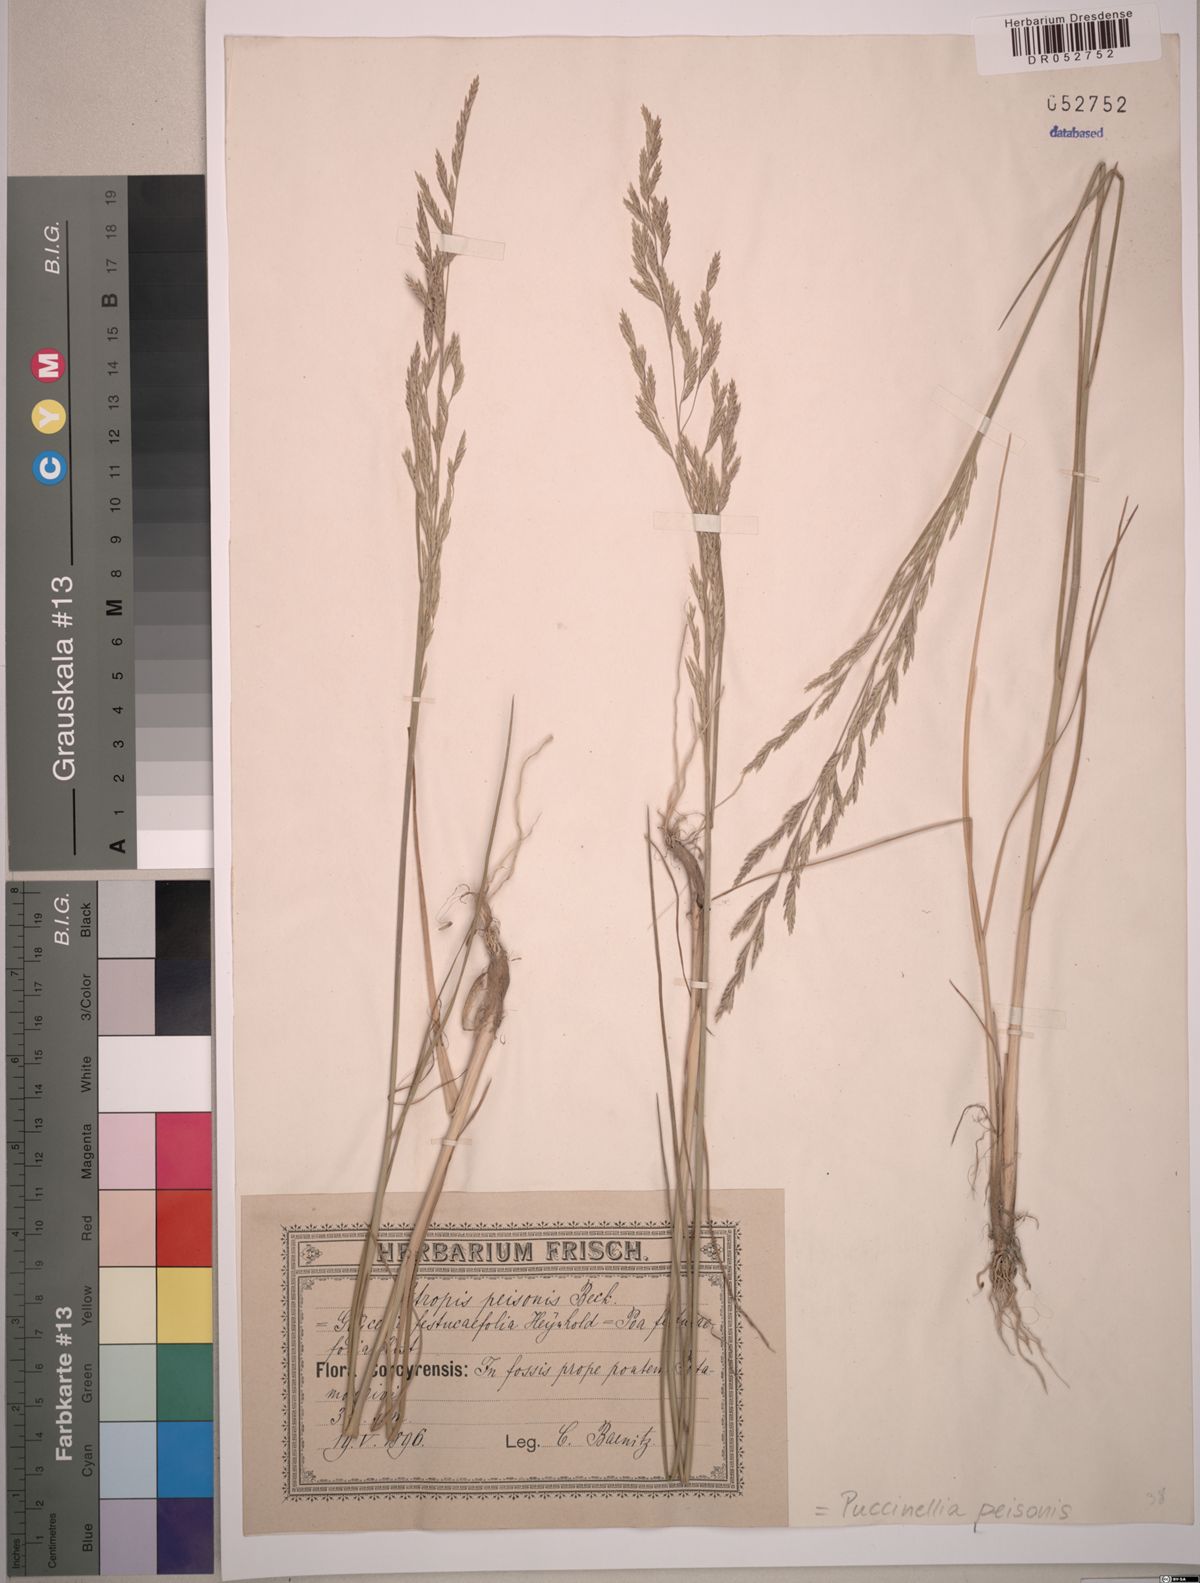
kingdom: Plantae
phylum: Tracheophyta
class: Liliopsida
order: Poales
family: Poaceae
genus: Puccinellia
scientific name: Puccinellia intermedia
